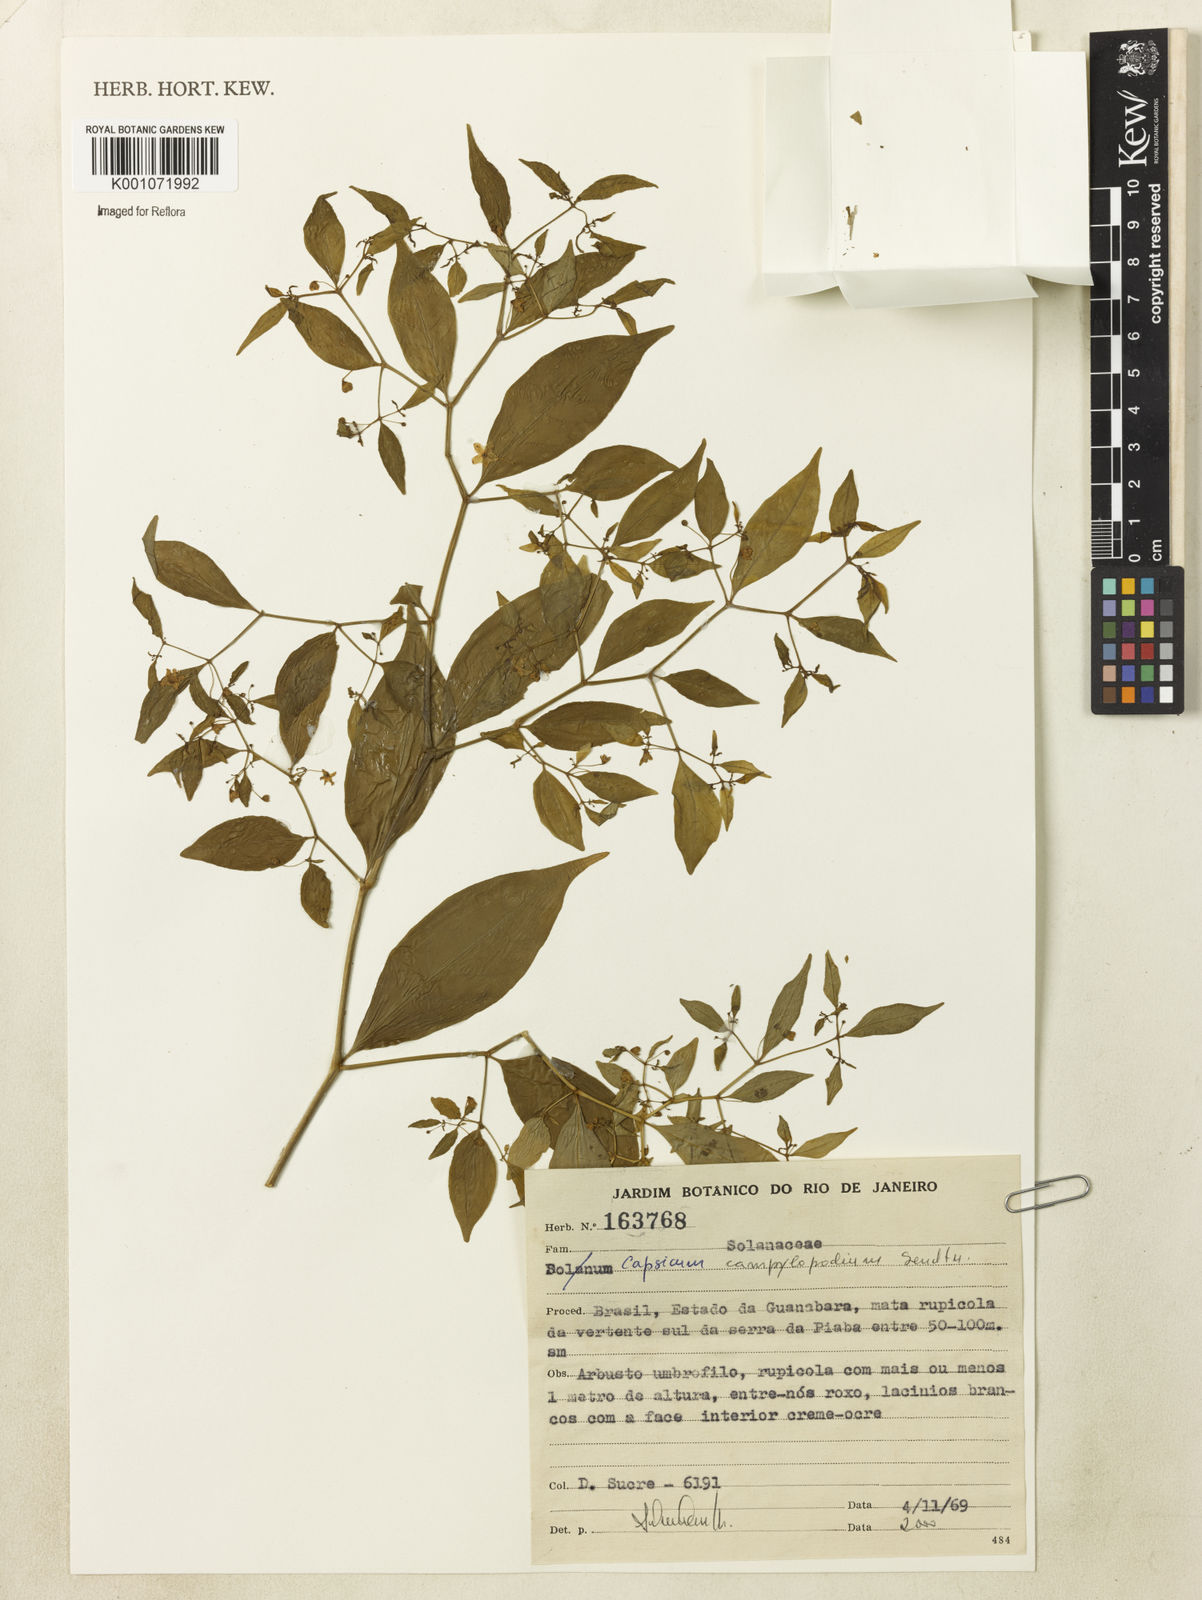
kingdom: Plantae
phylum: Tracheophyta
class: Magnoliopsida
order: Solanales
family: Solanaceae
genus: Capsicum
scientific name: Capsicum campylopodium
